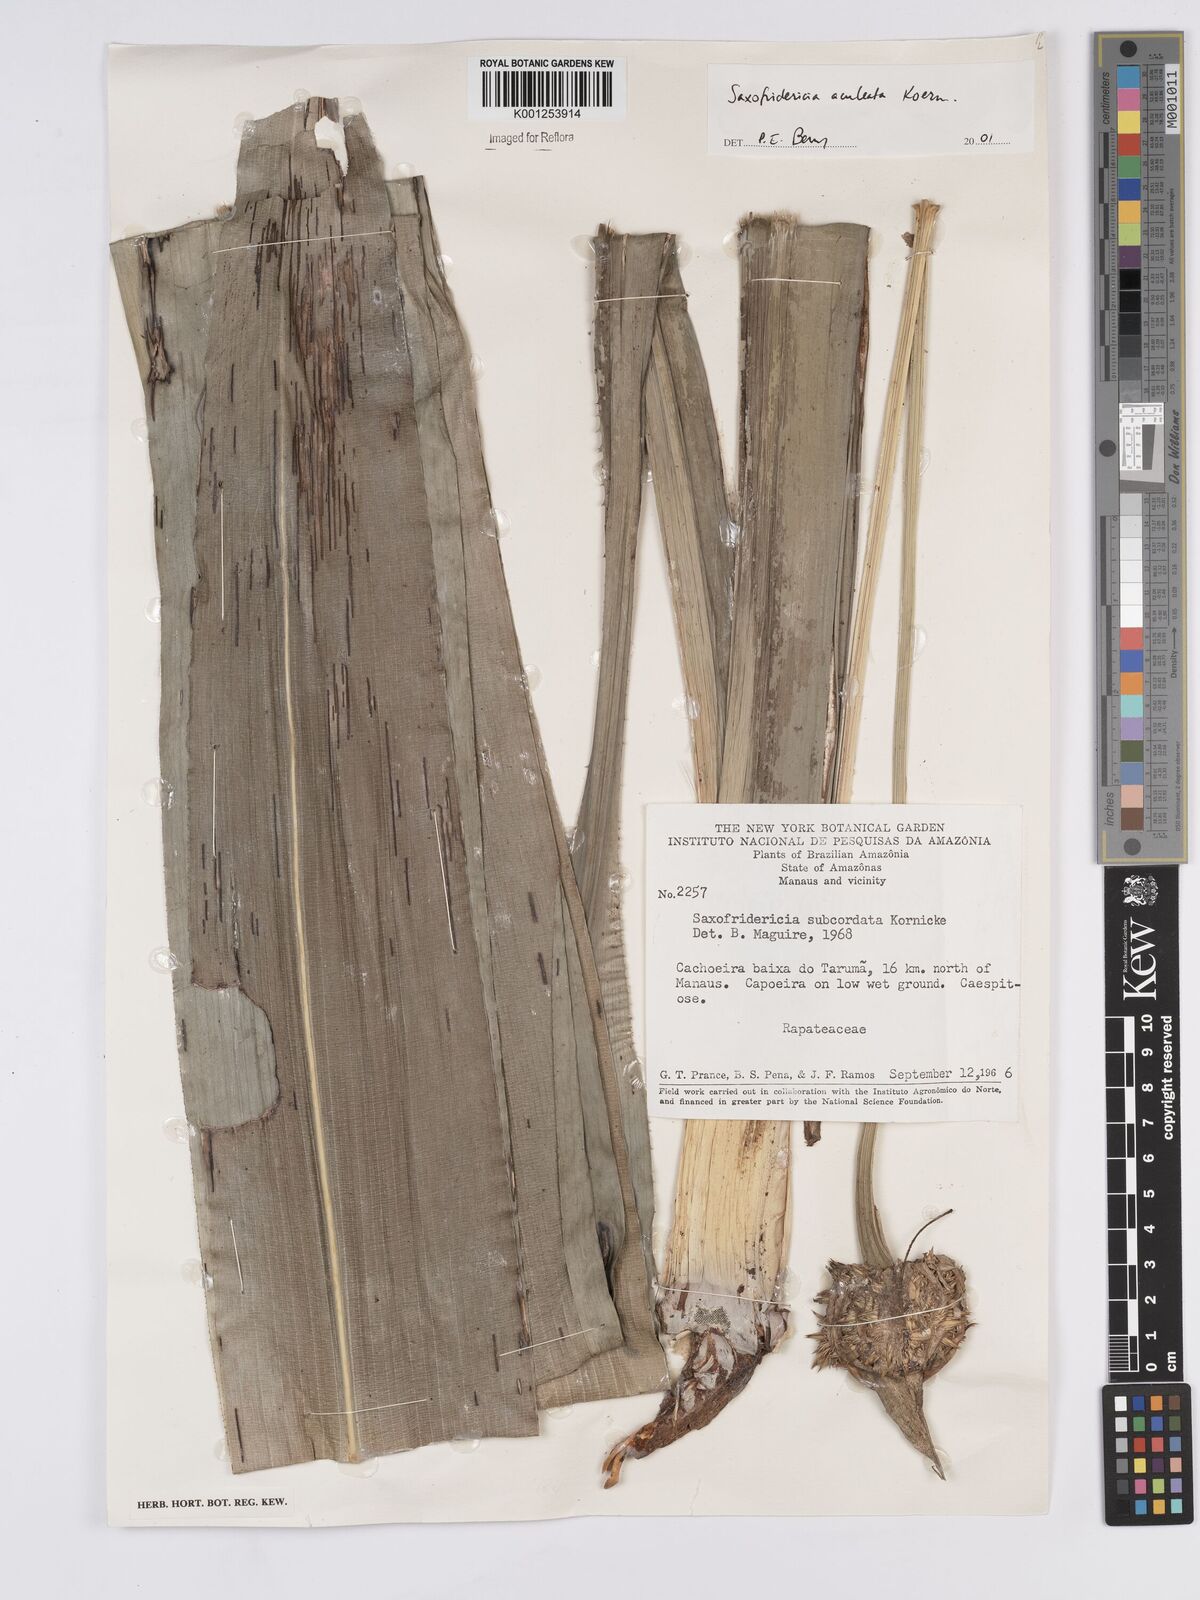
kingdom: Plantae
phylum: Tracheophyta
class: Liliopsida
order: Poales
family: Rapateaceae
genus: Saxofridericia
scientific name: Saxofridericia aculeata
